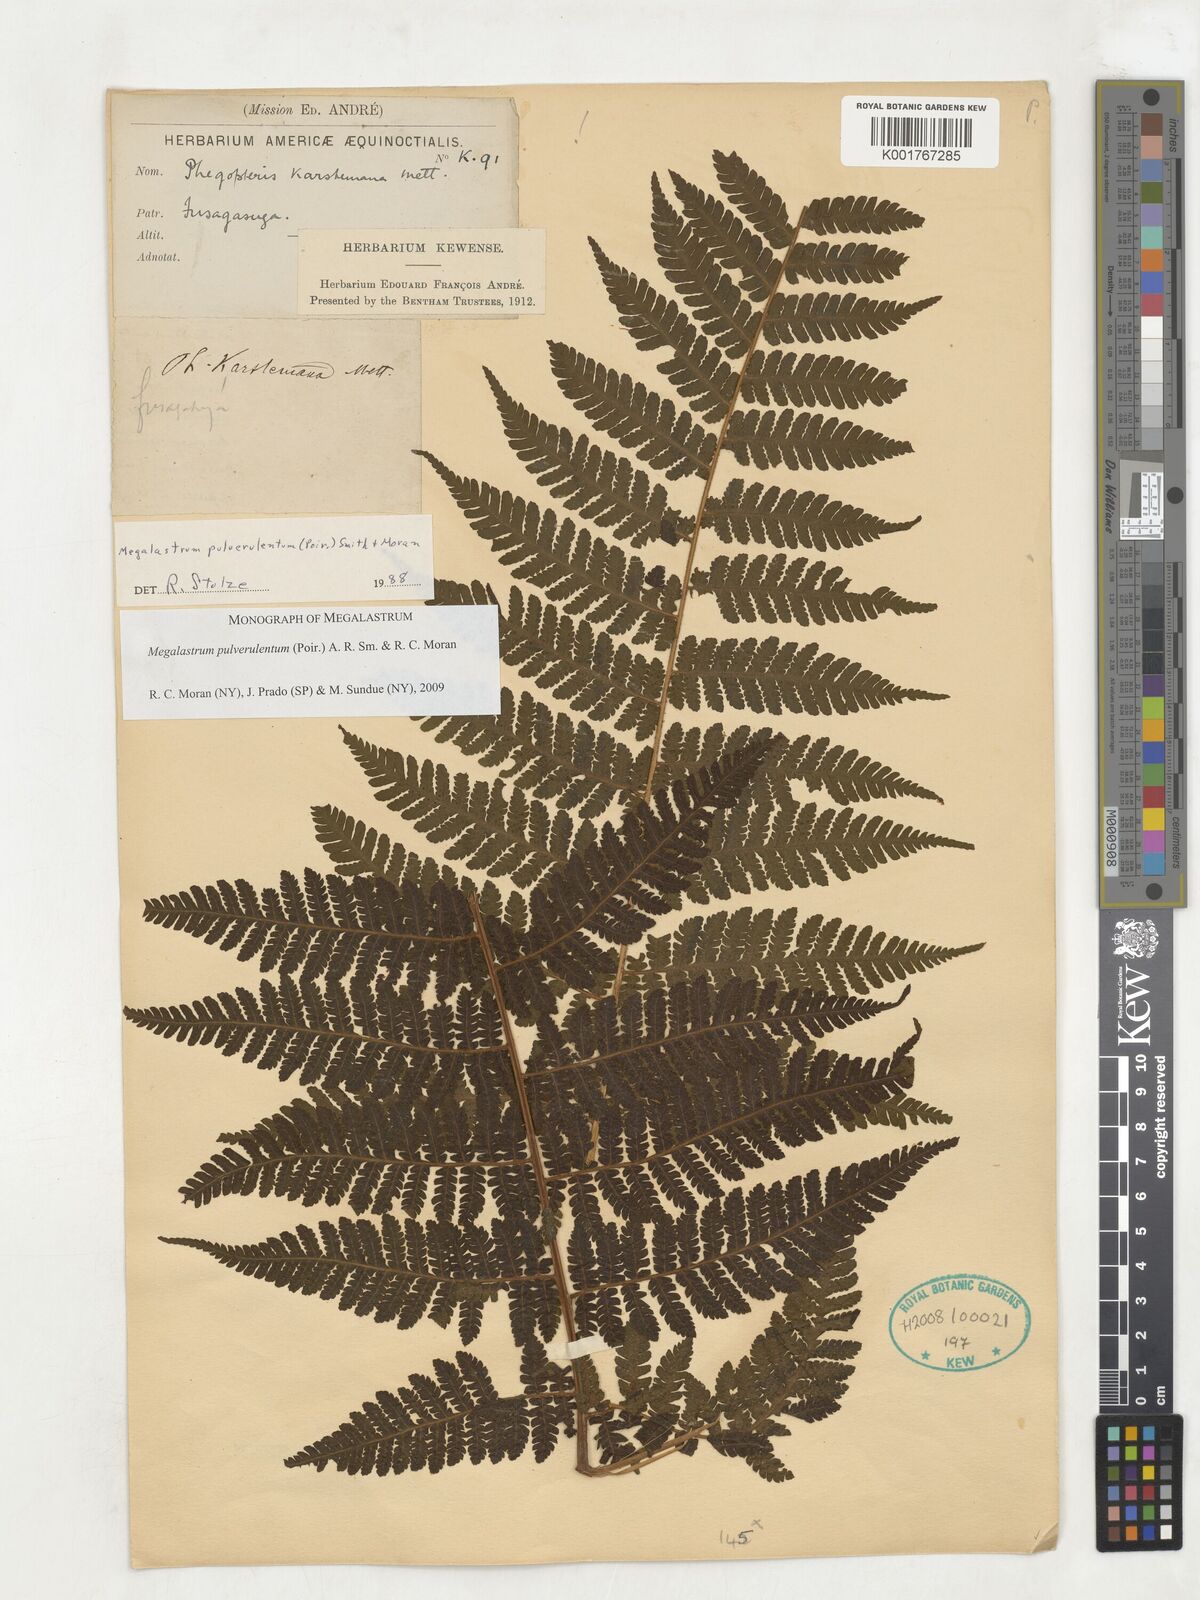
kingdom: Plantae
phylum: Tracheophyta
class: Polypodiopsida
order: Polypodiales
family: Dryopteridaceae
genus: Megalastrum
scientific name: Megalastrum pulverulentum
